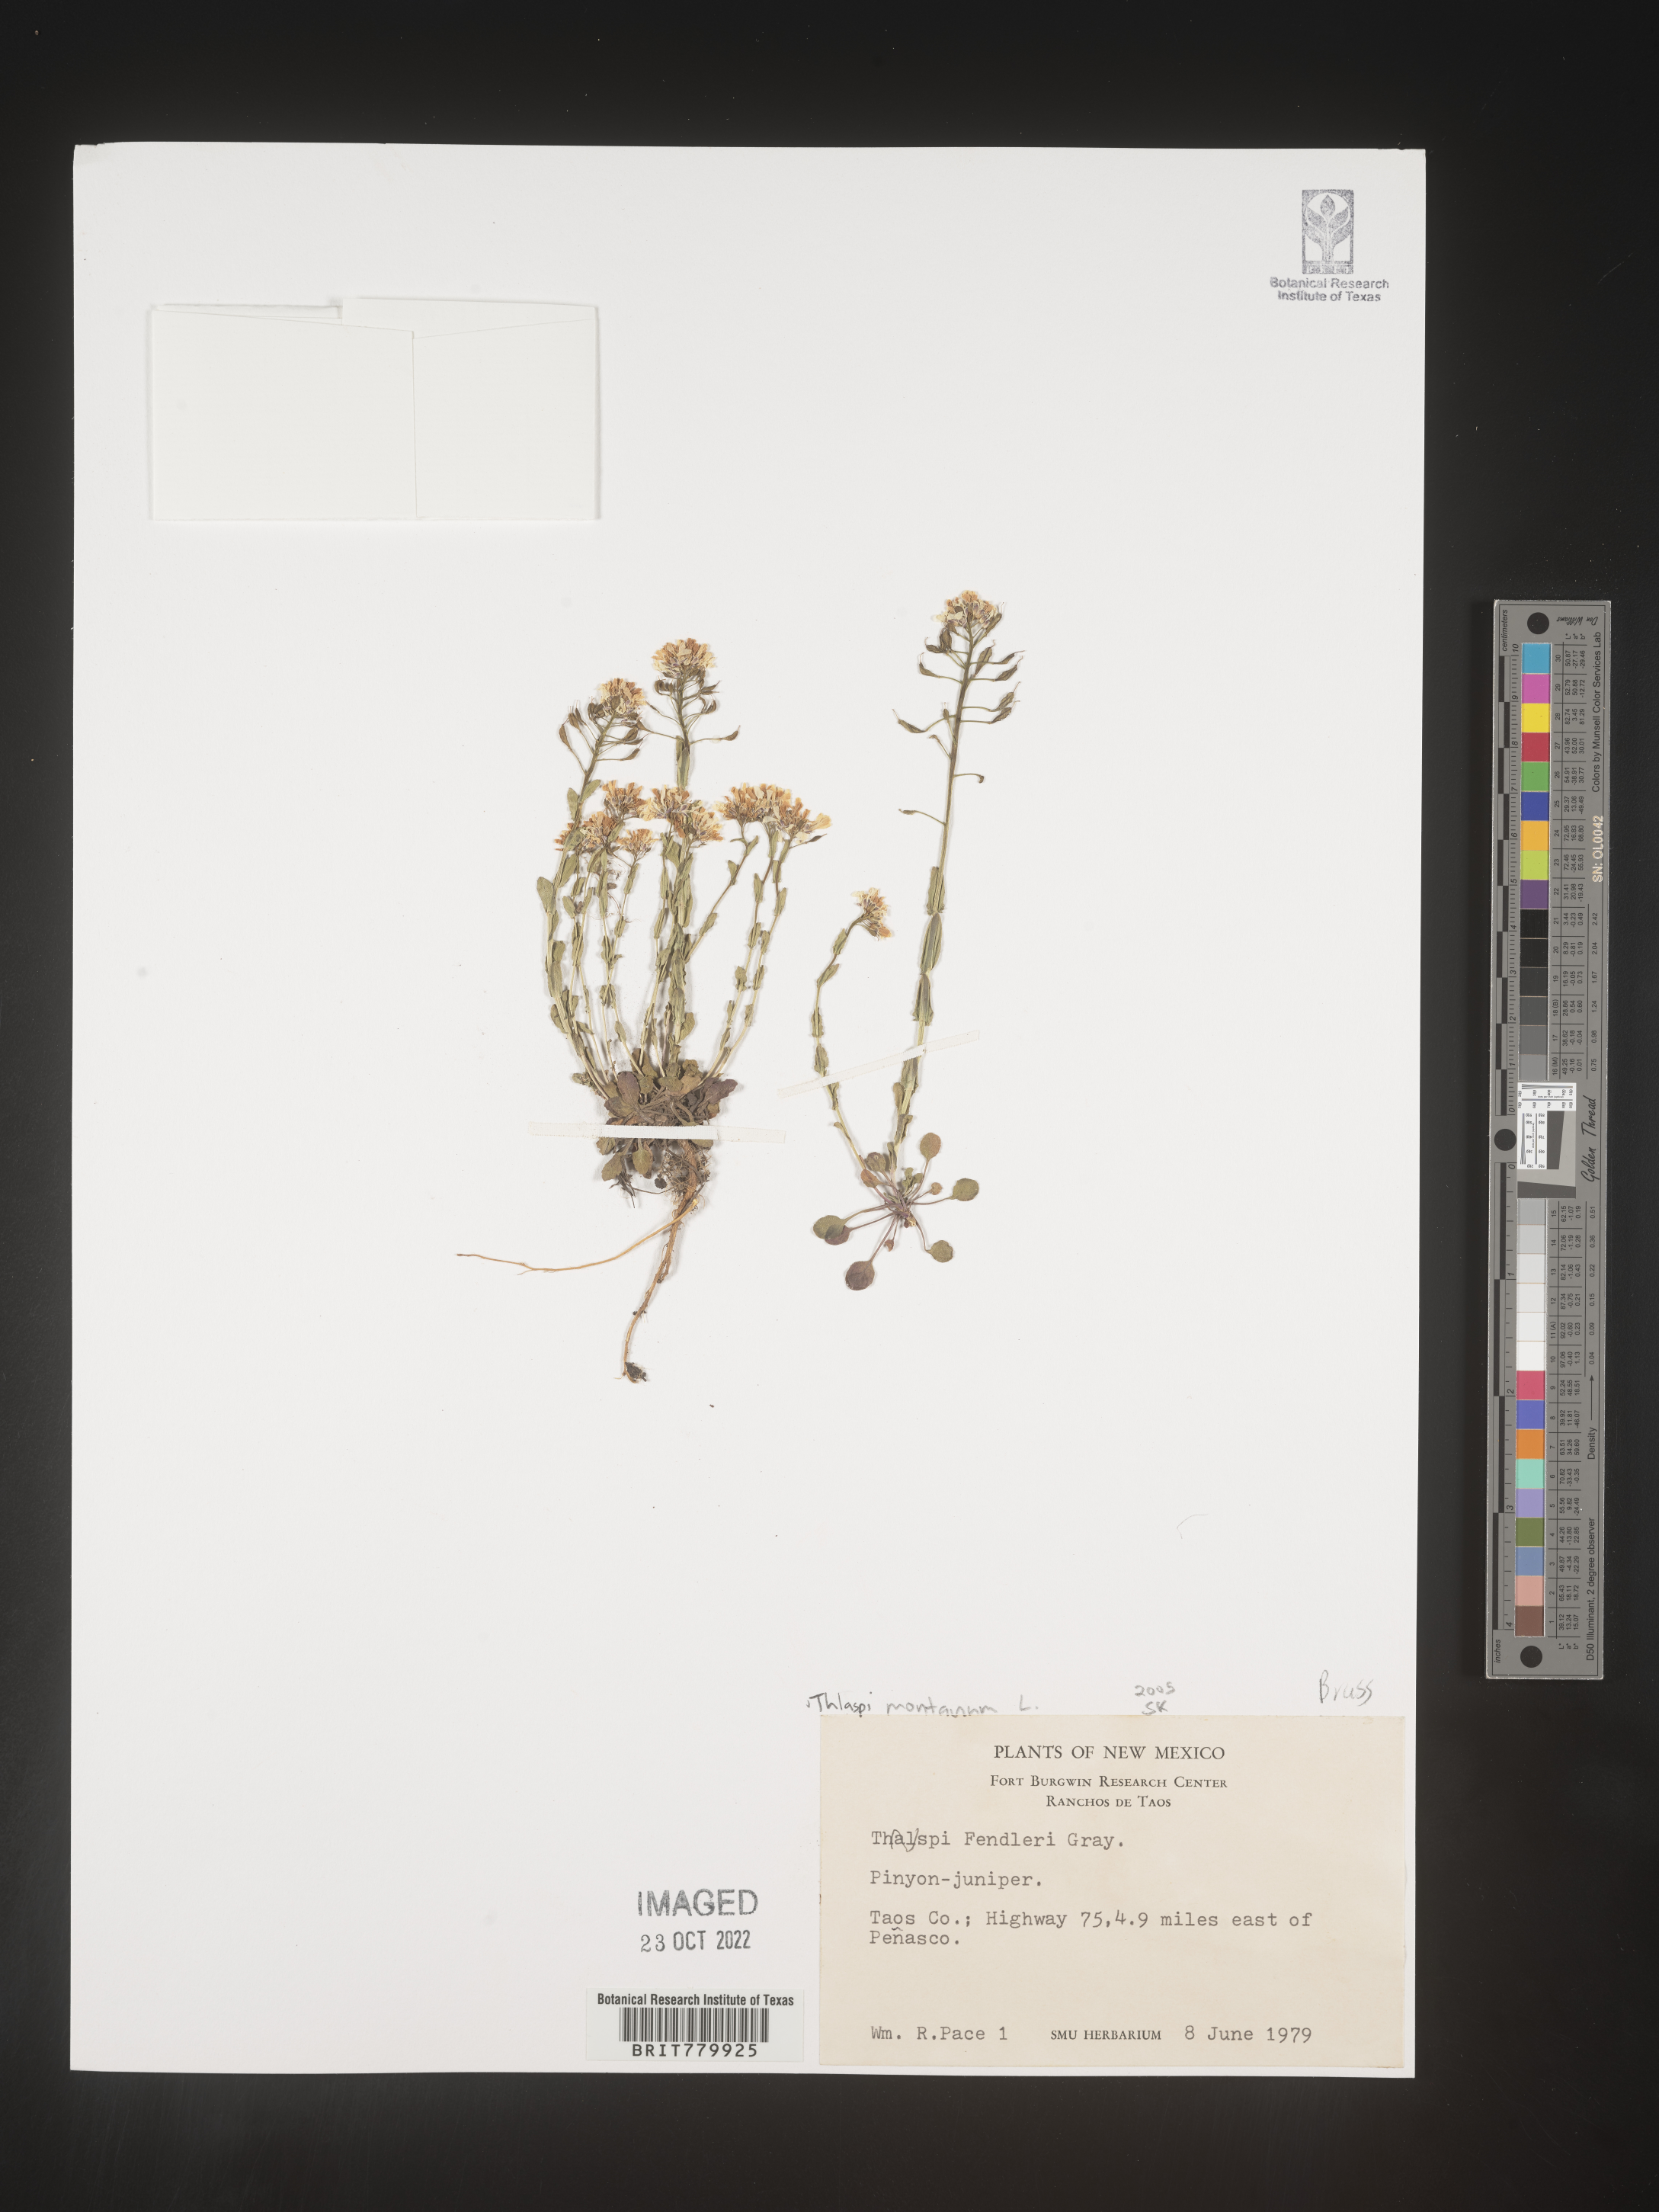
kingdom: Plantae
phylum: Tracheophyta
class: Magnoliopsida
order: Brassicales
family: Brassicaceae
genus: Thlaspi
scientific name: Thlaspi
